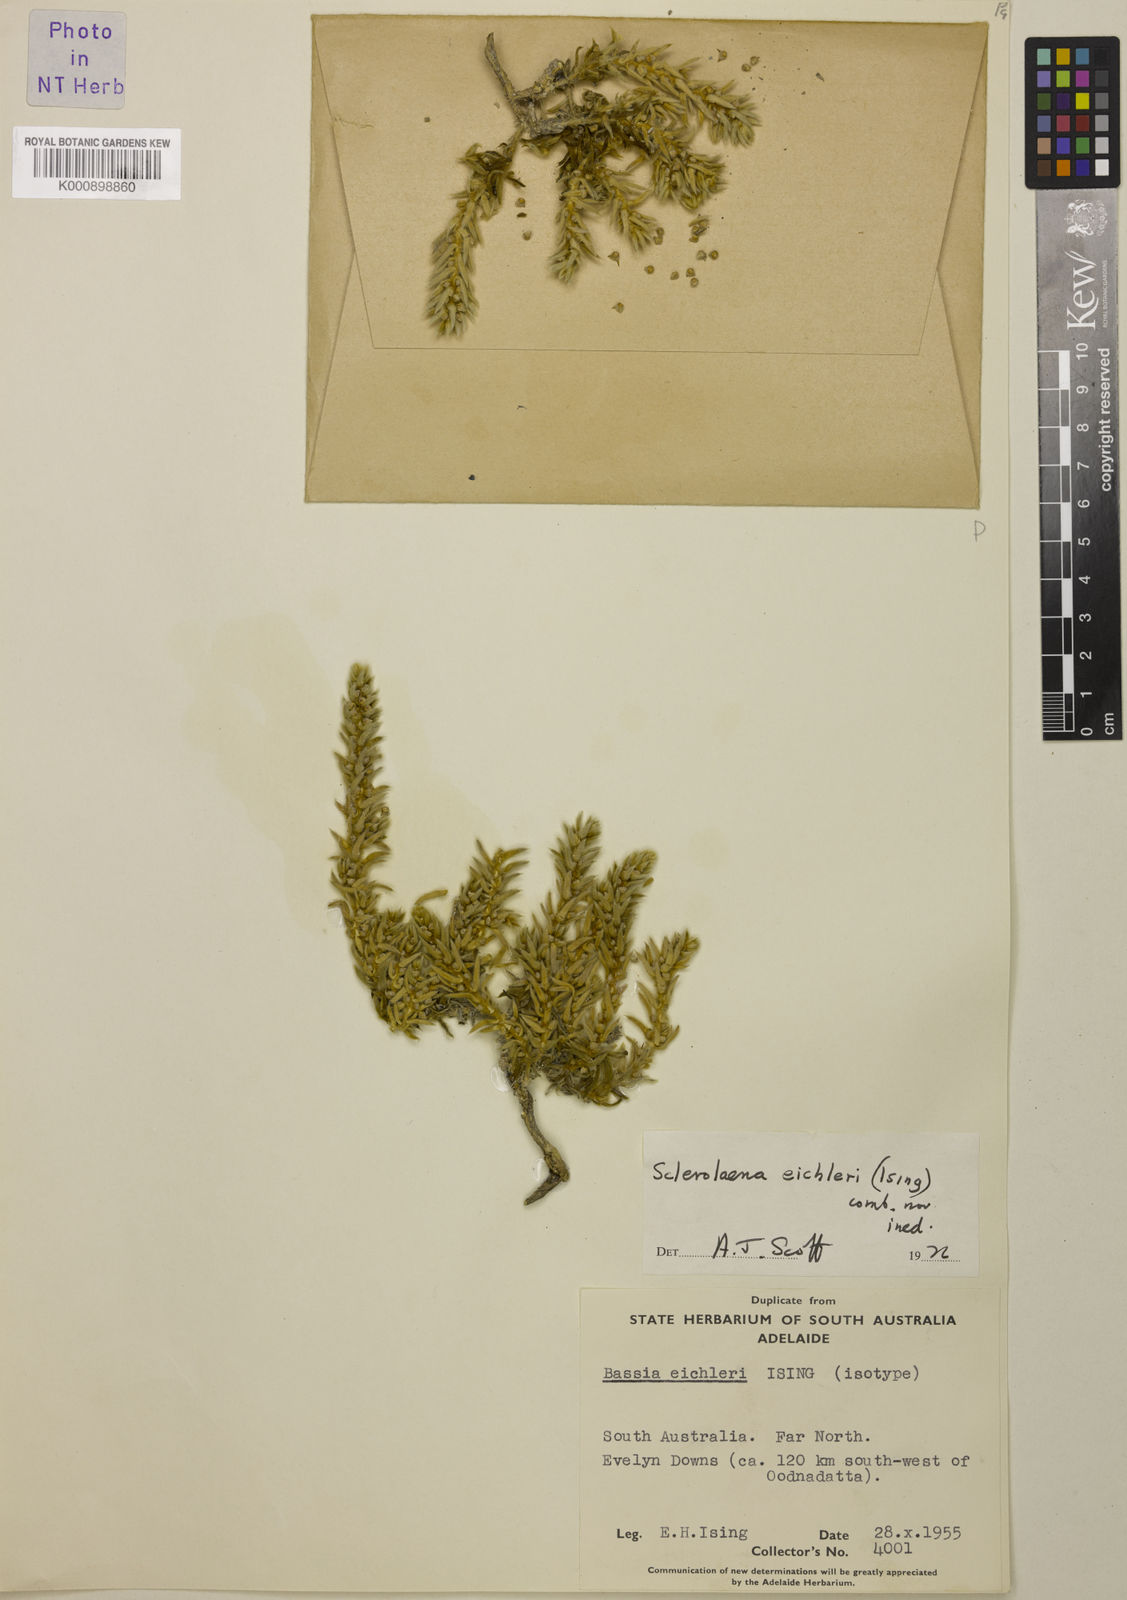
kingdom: Plantae
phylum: Tracheophyta
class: Magnoliopsida
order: Caryophyllales
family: Amaranthaceae
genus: Sclerolaena
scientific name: Sclerolaena holtiana
